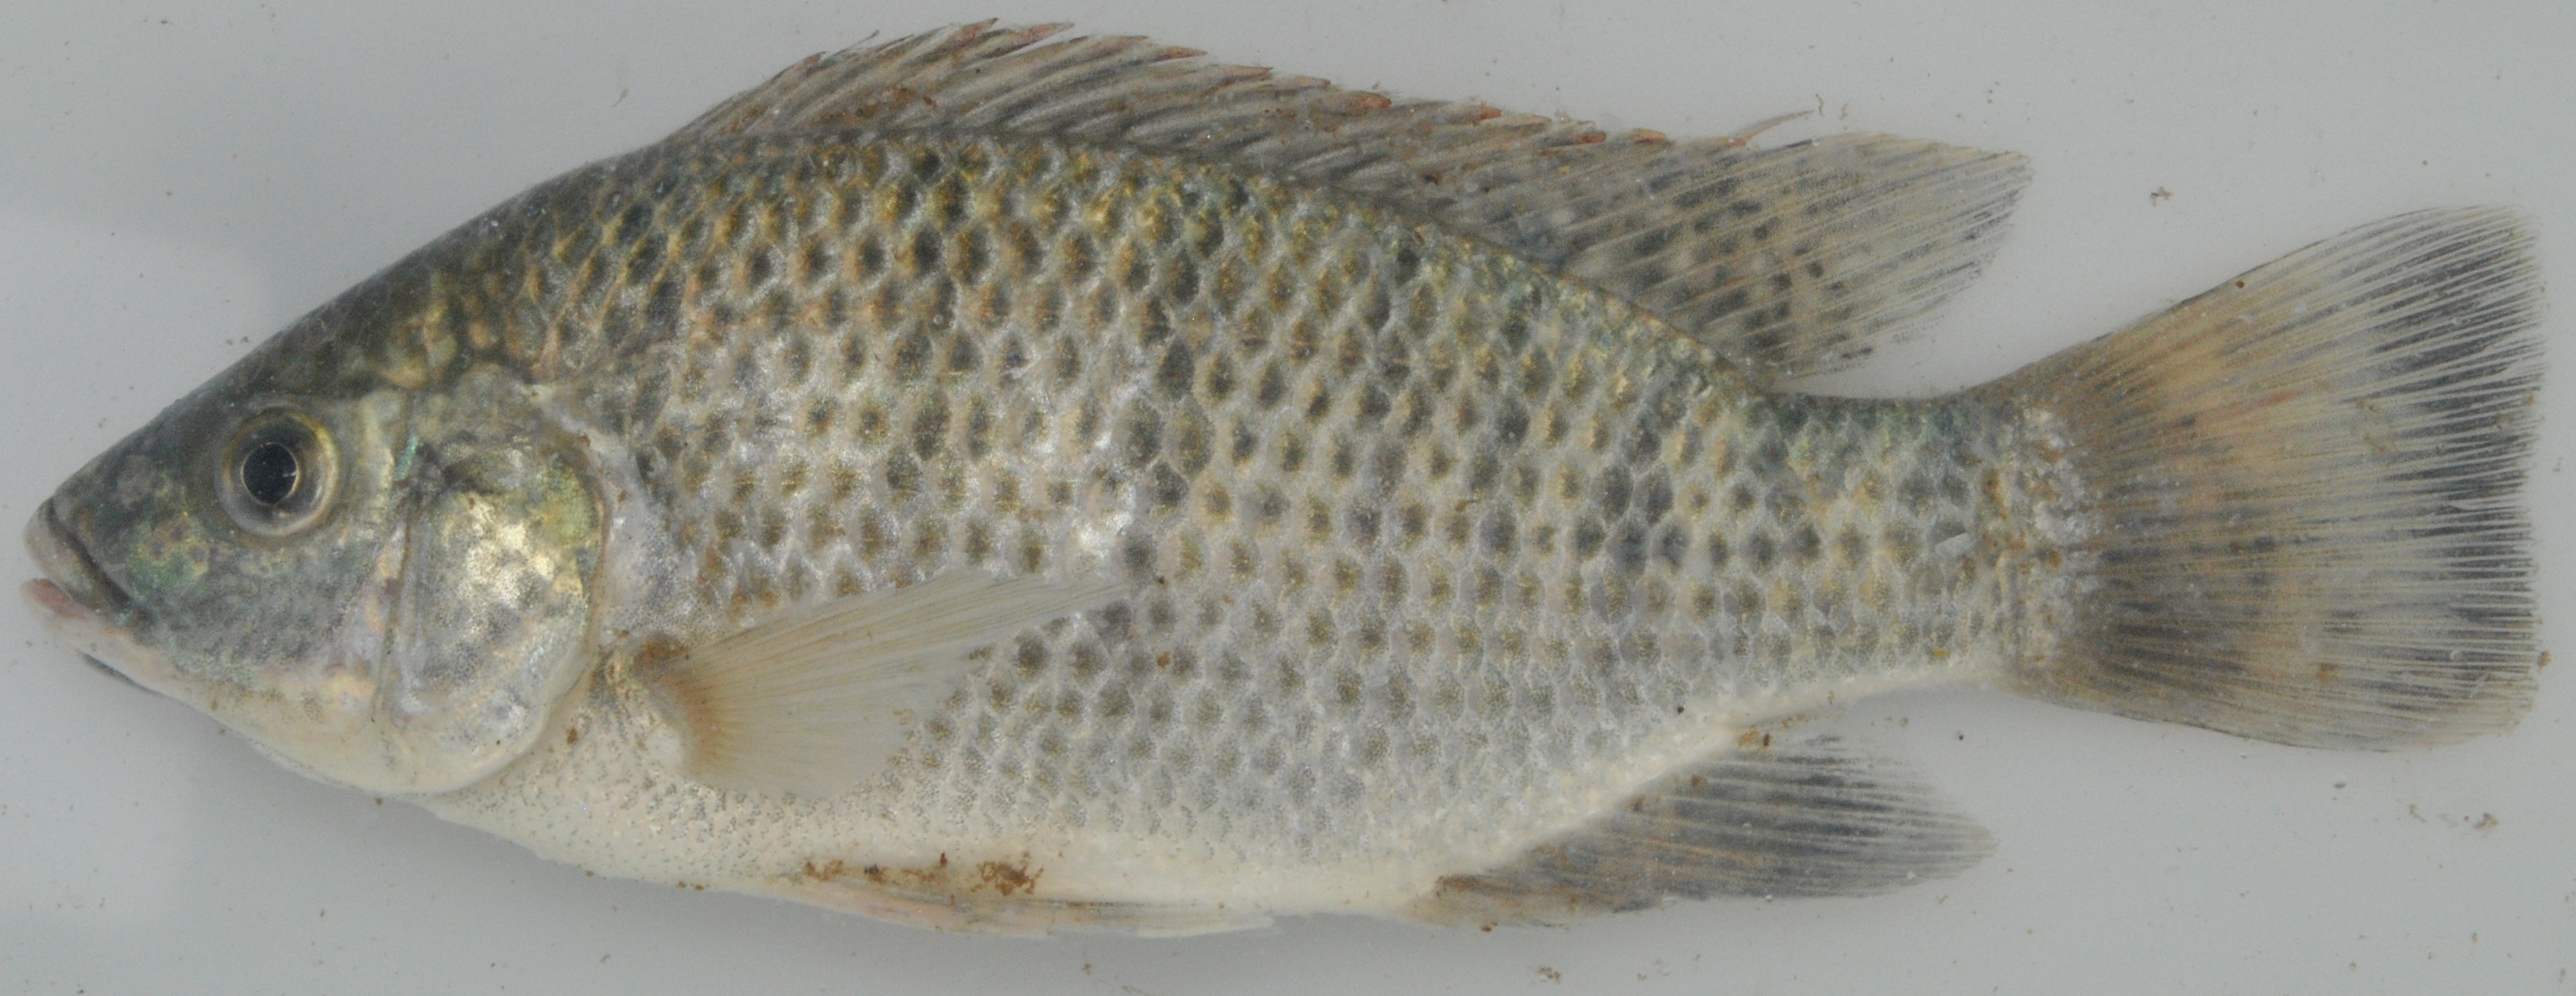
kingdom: Animalia
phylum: Chordata
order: Perciformes
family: Cichlidae
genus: Oreochromis
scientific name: Oreochromis mossambicus
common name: Mozambique tilapia
